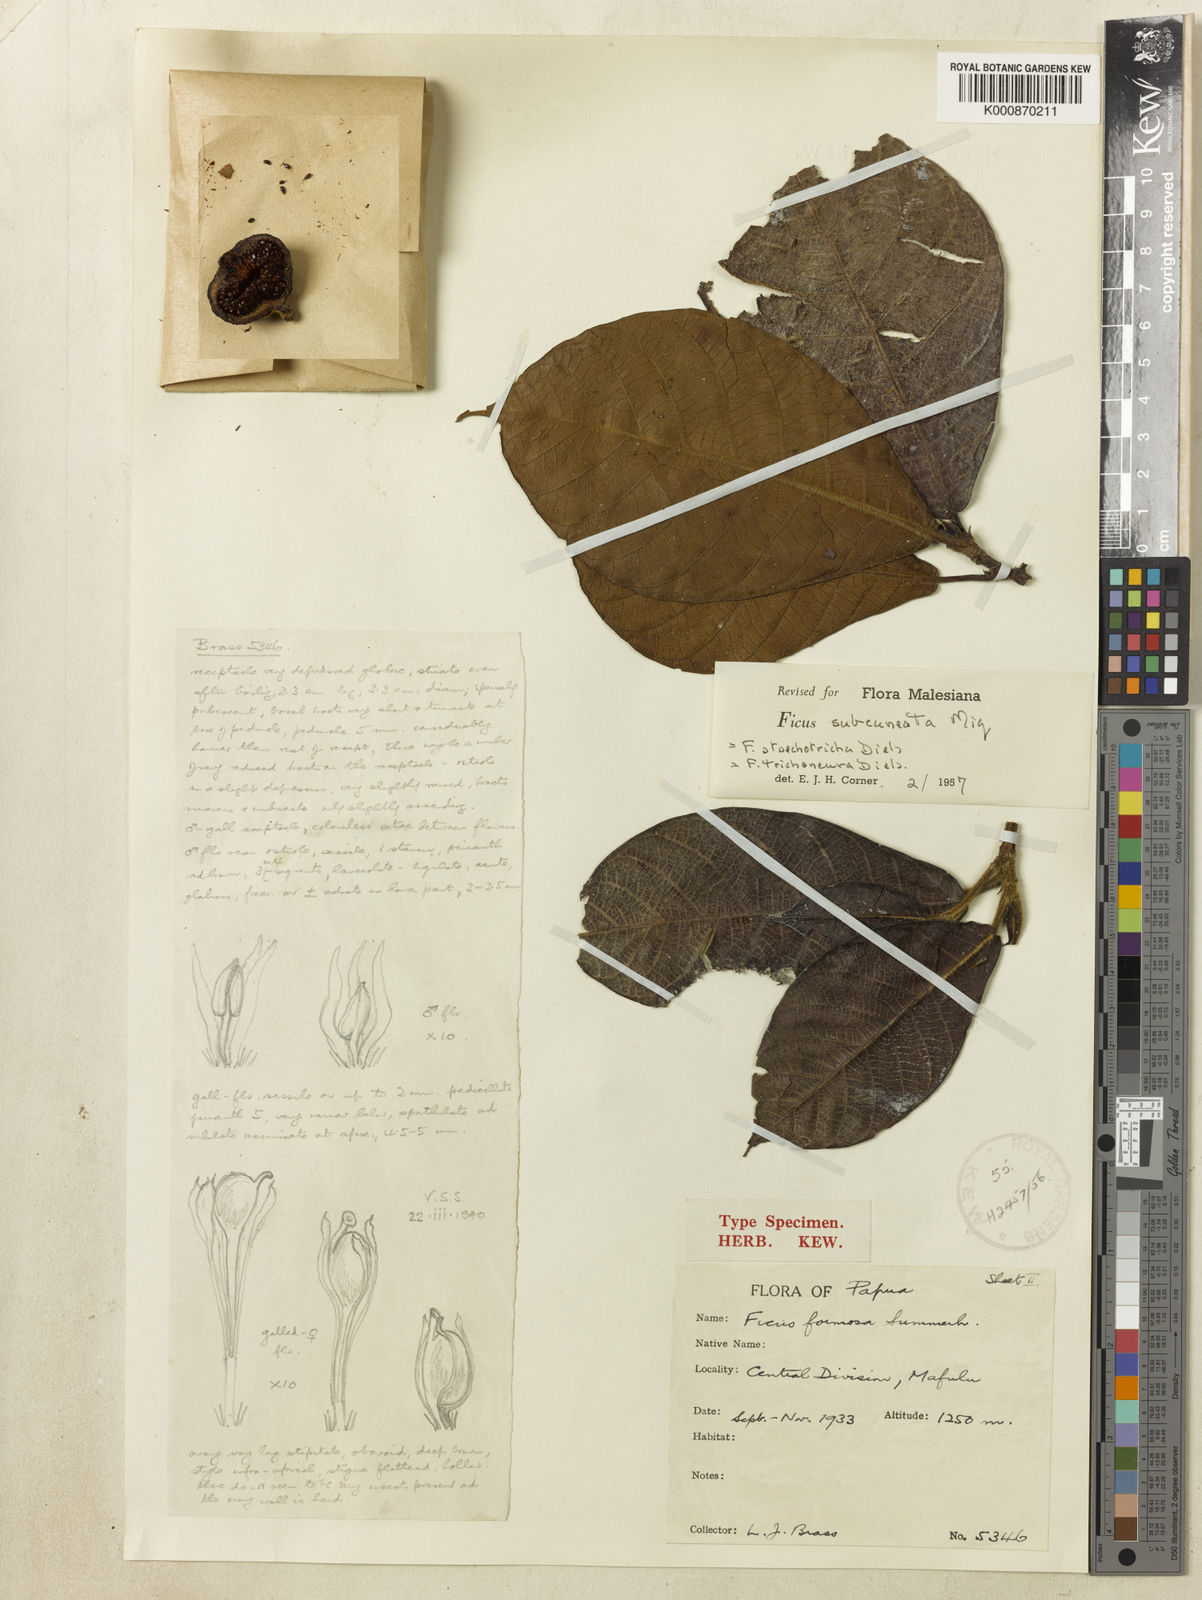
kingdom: Plantae
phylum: Tracheophyta
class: Magnoliopsida
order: Rosales
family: Moraceae
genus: Ficus
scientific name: Ficus subcuneata
